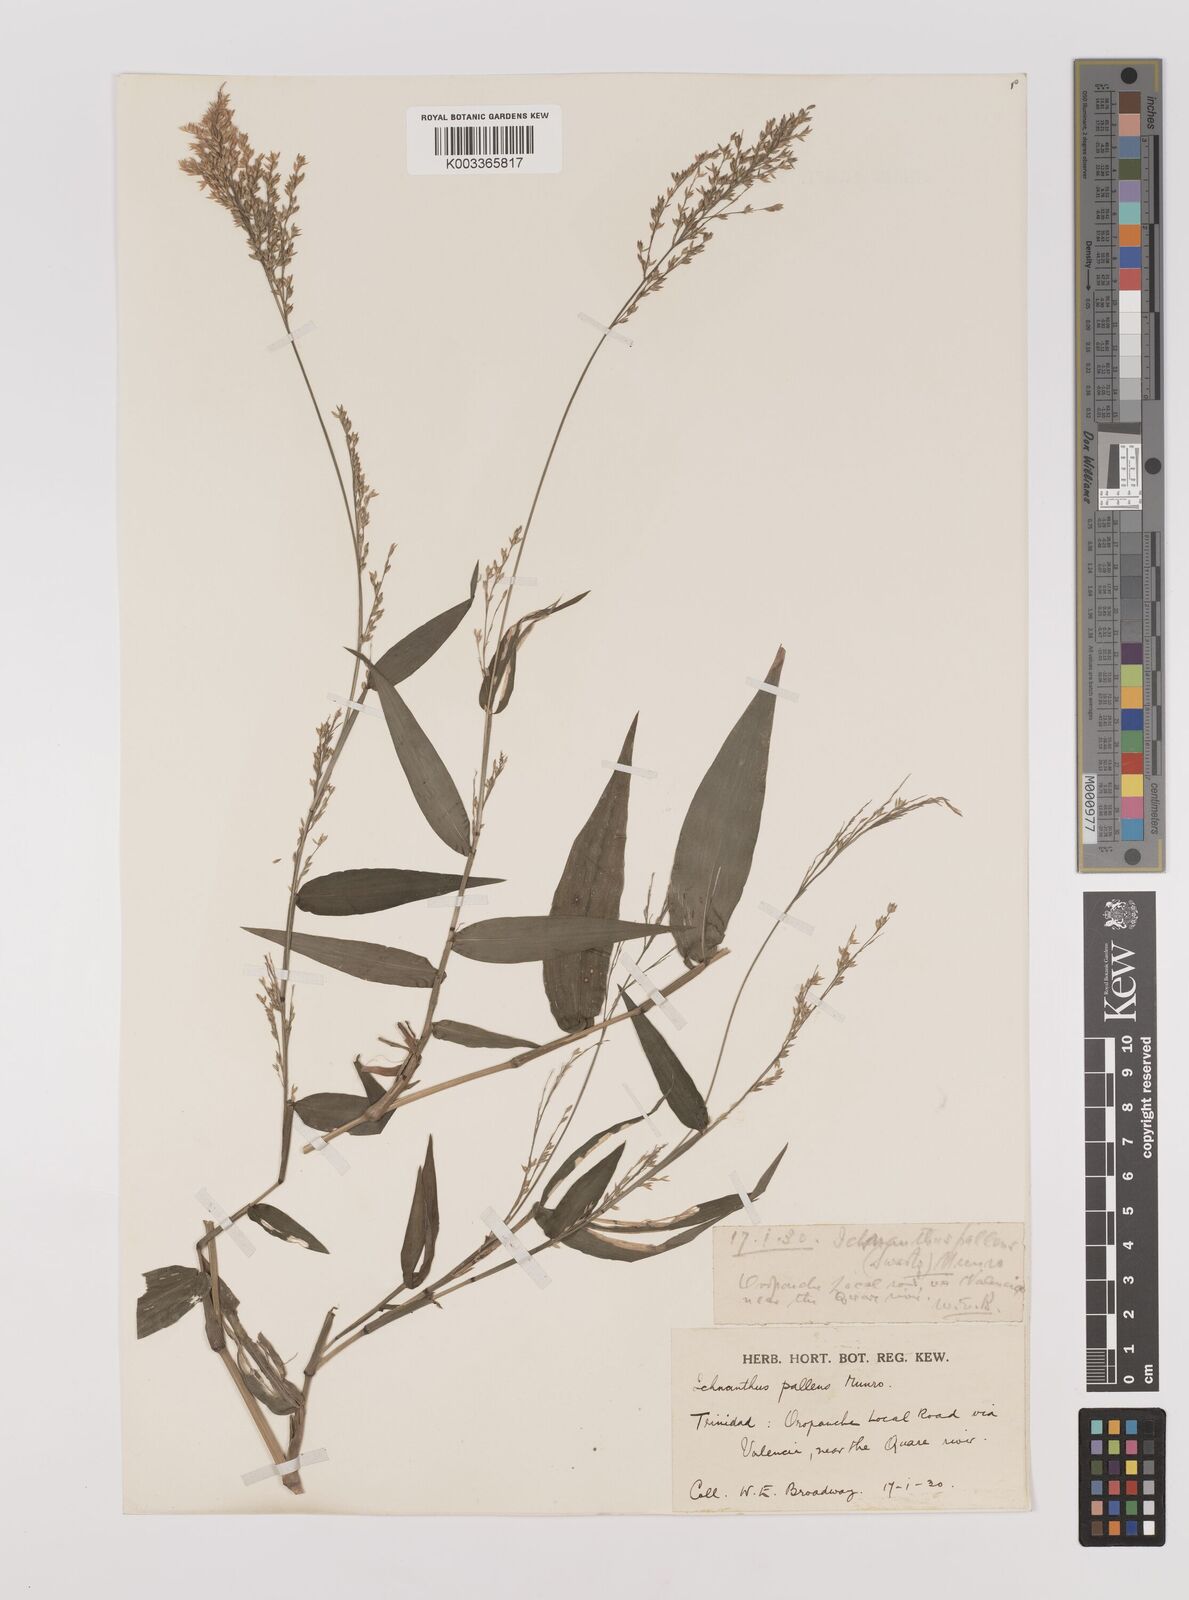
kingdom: Plantae
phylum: Tracheophyta
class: Liliopsida
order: Poales
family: Poaceae
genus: Ichnanthus
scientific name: Ichnanthus pallens
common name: Water grass
